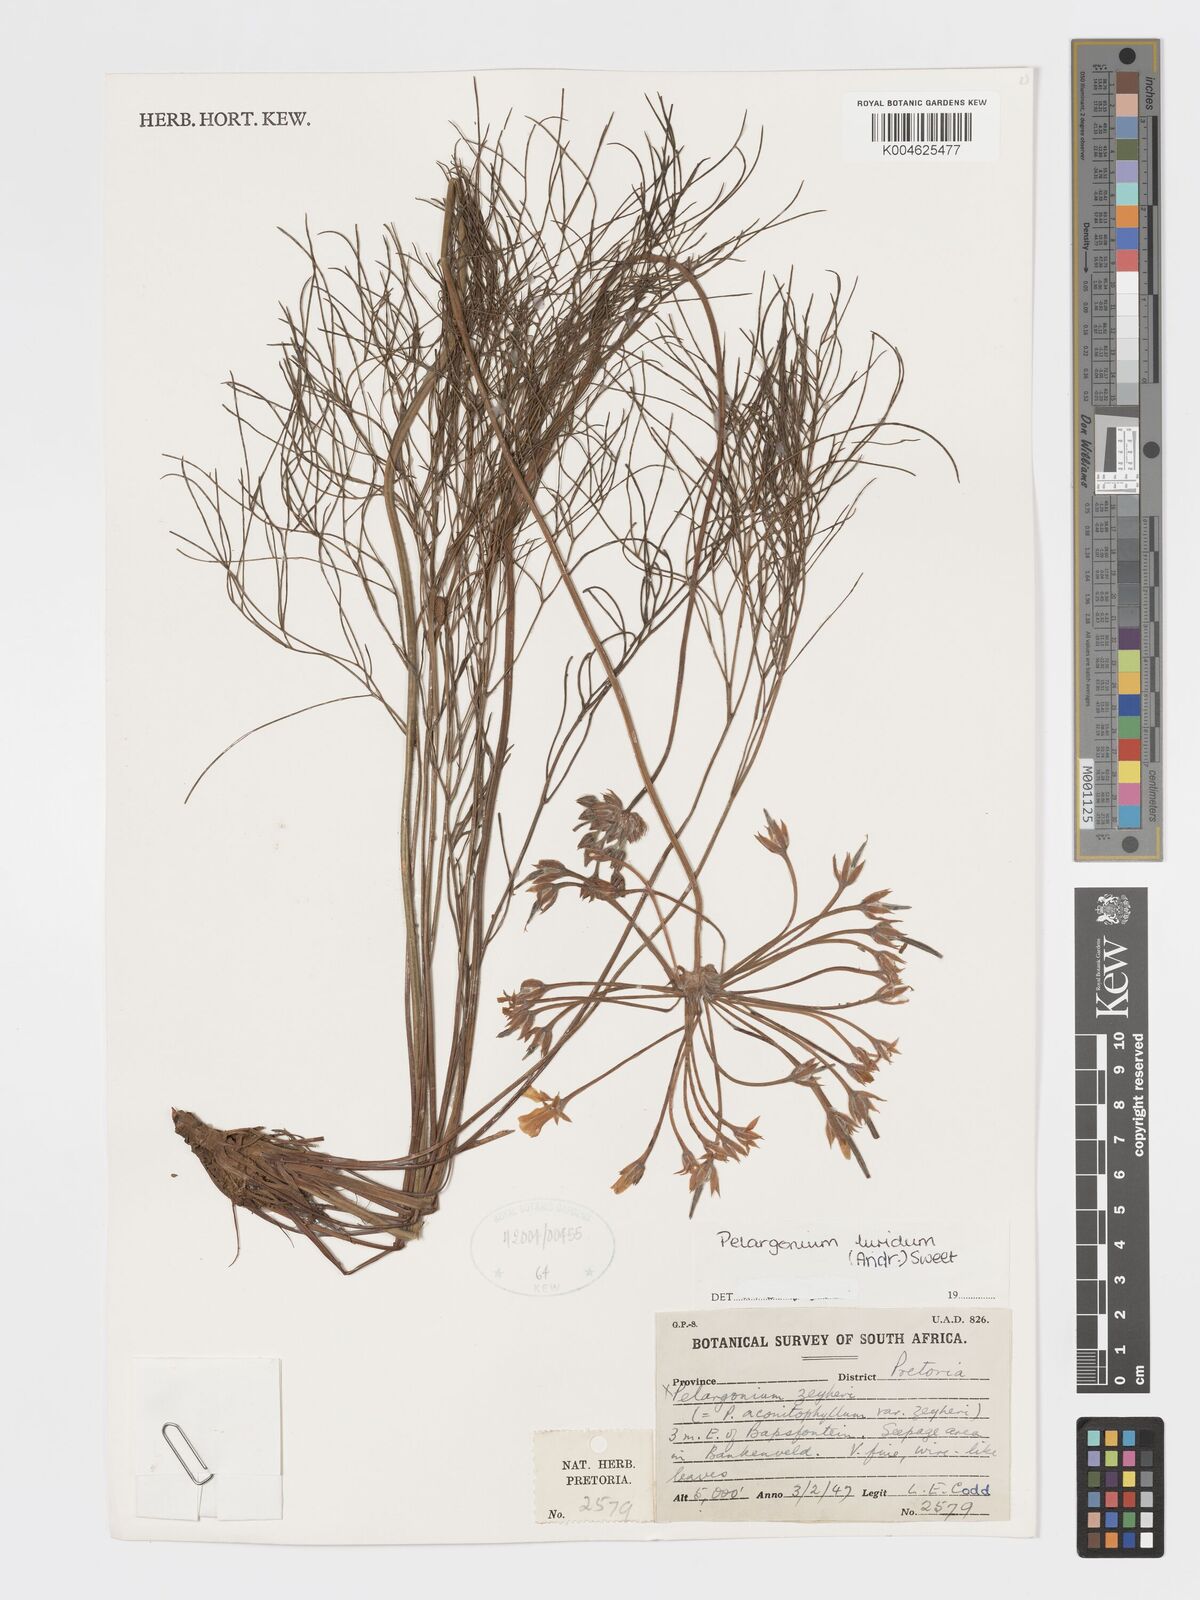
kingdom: Plantae
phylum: Tracheophyta
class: Magnoliopsida
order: Geraniales
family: Geraniaceae
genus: Pelargonium
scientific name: Pelargonium luridum
